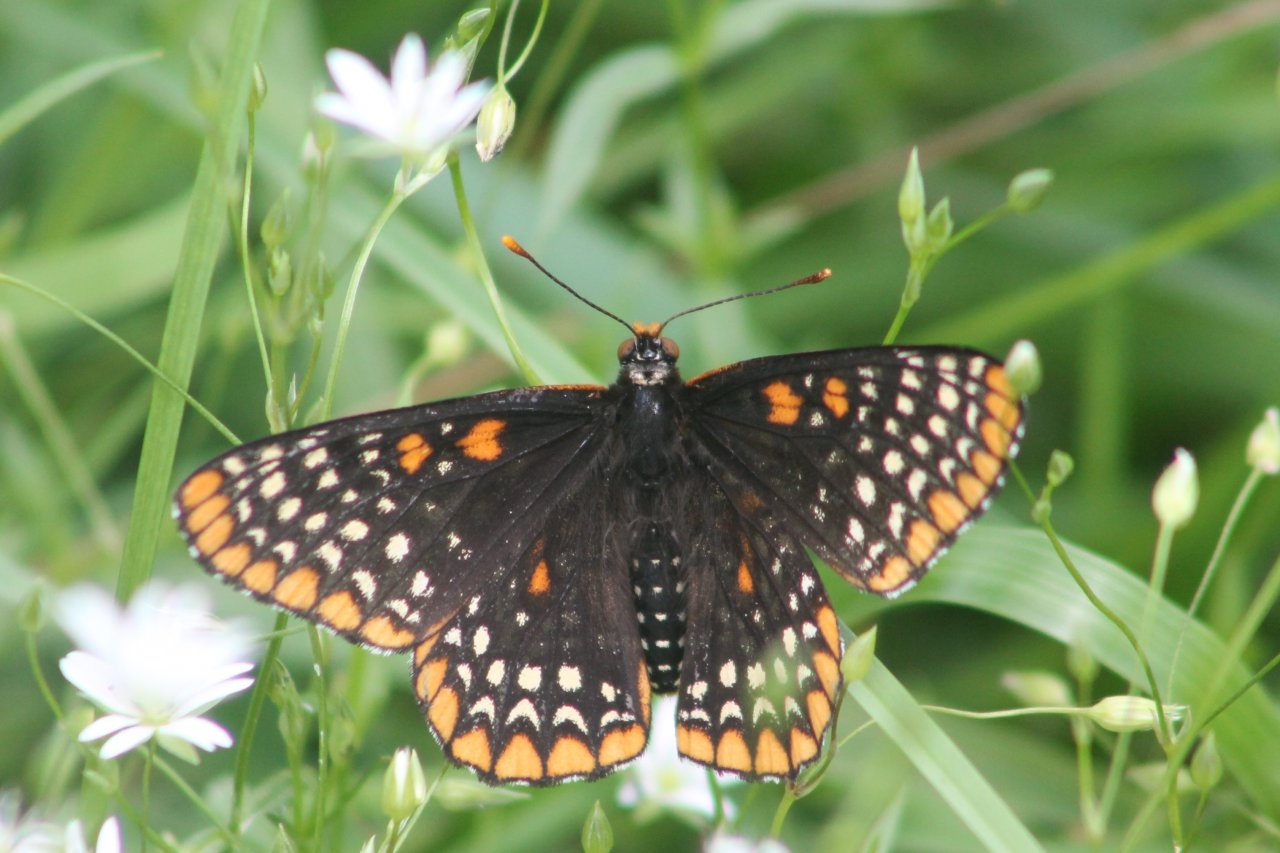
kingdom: Animalia
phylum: Arthropoda
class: Insecta
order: Lepidoptera
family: Nymphalidae
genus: Euphydryas
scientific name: Euphydryas phaeton
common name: Baltimore Checkerspot
